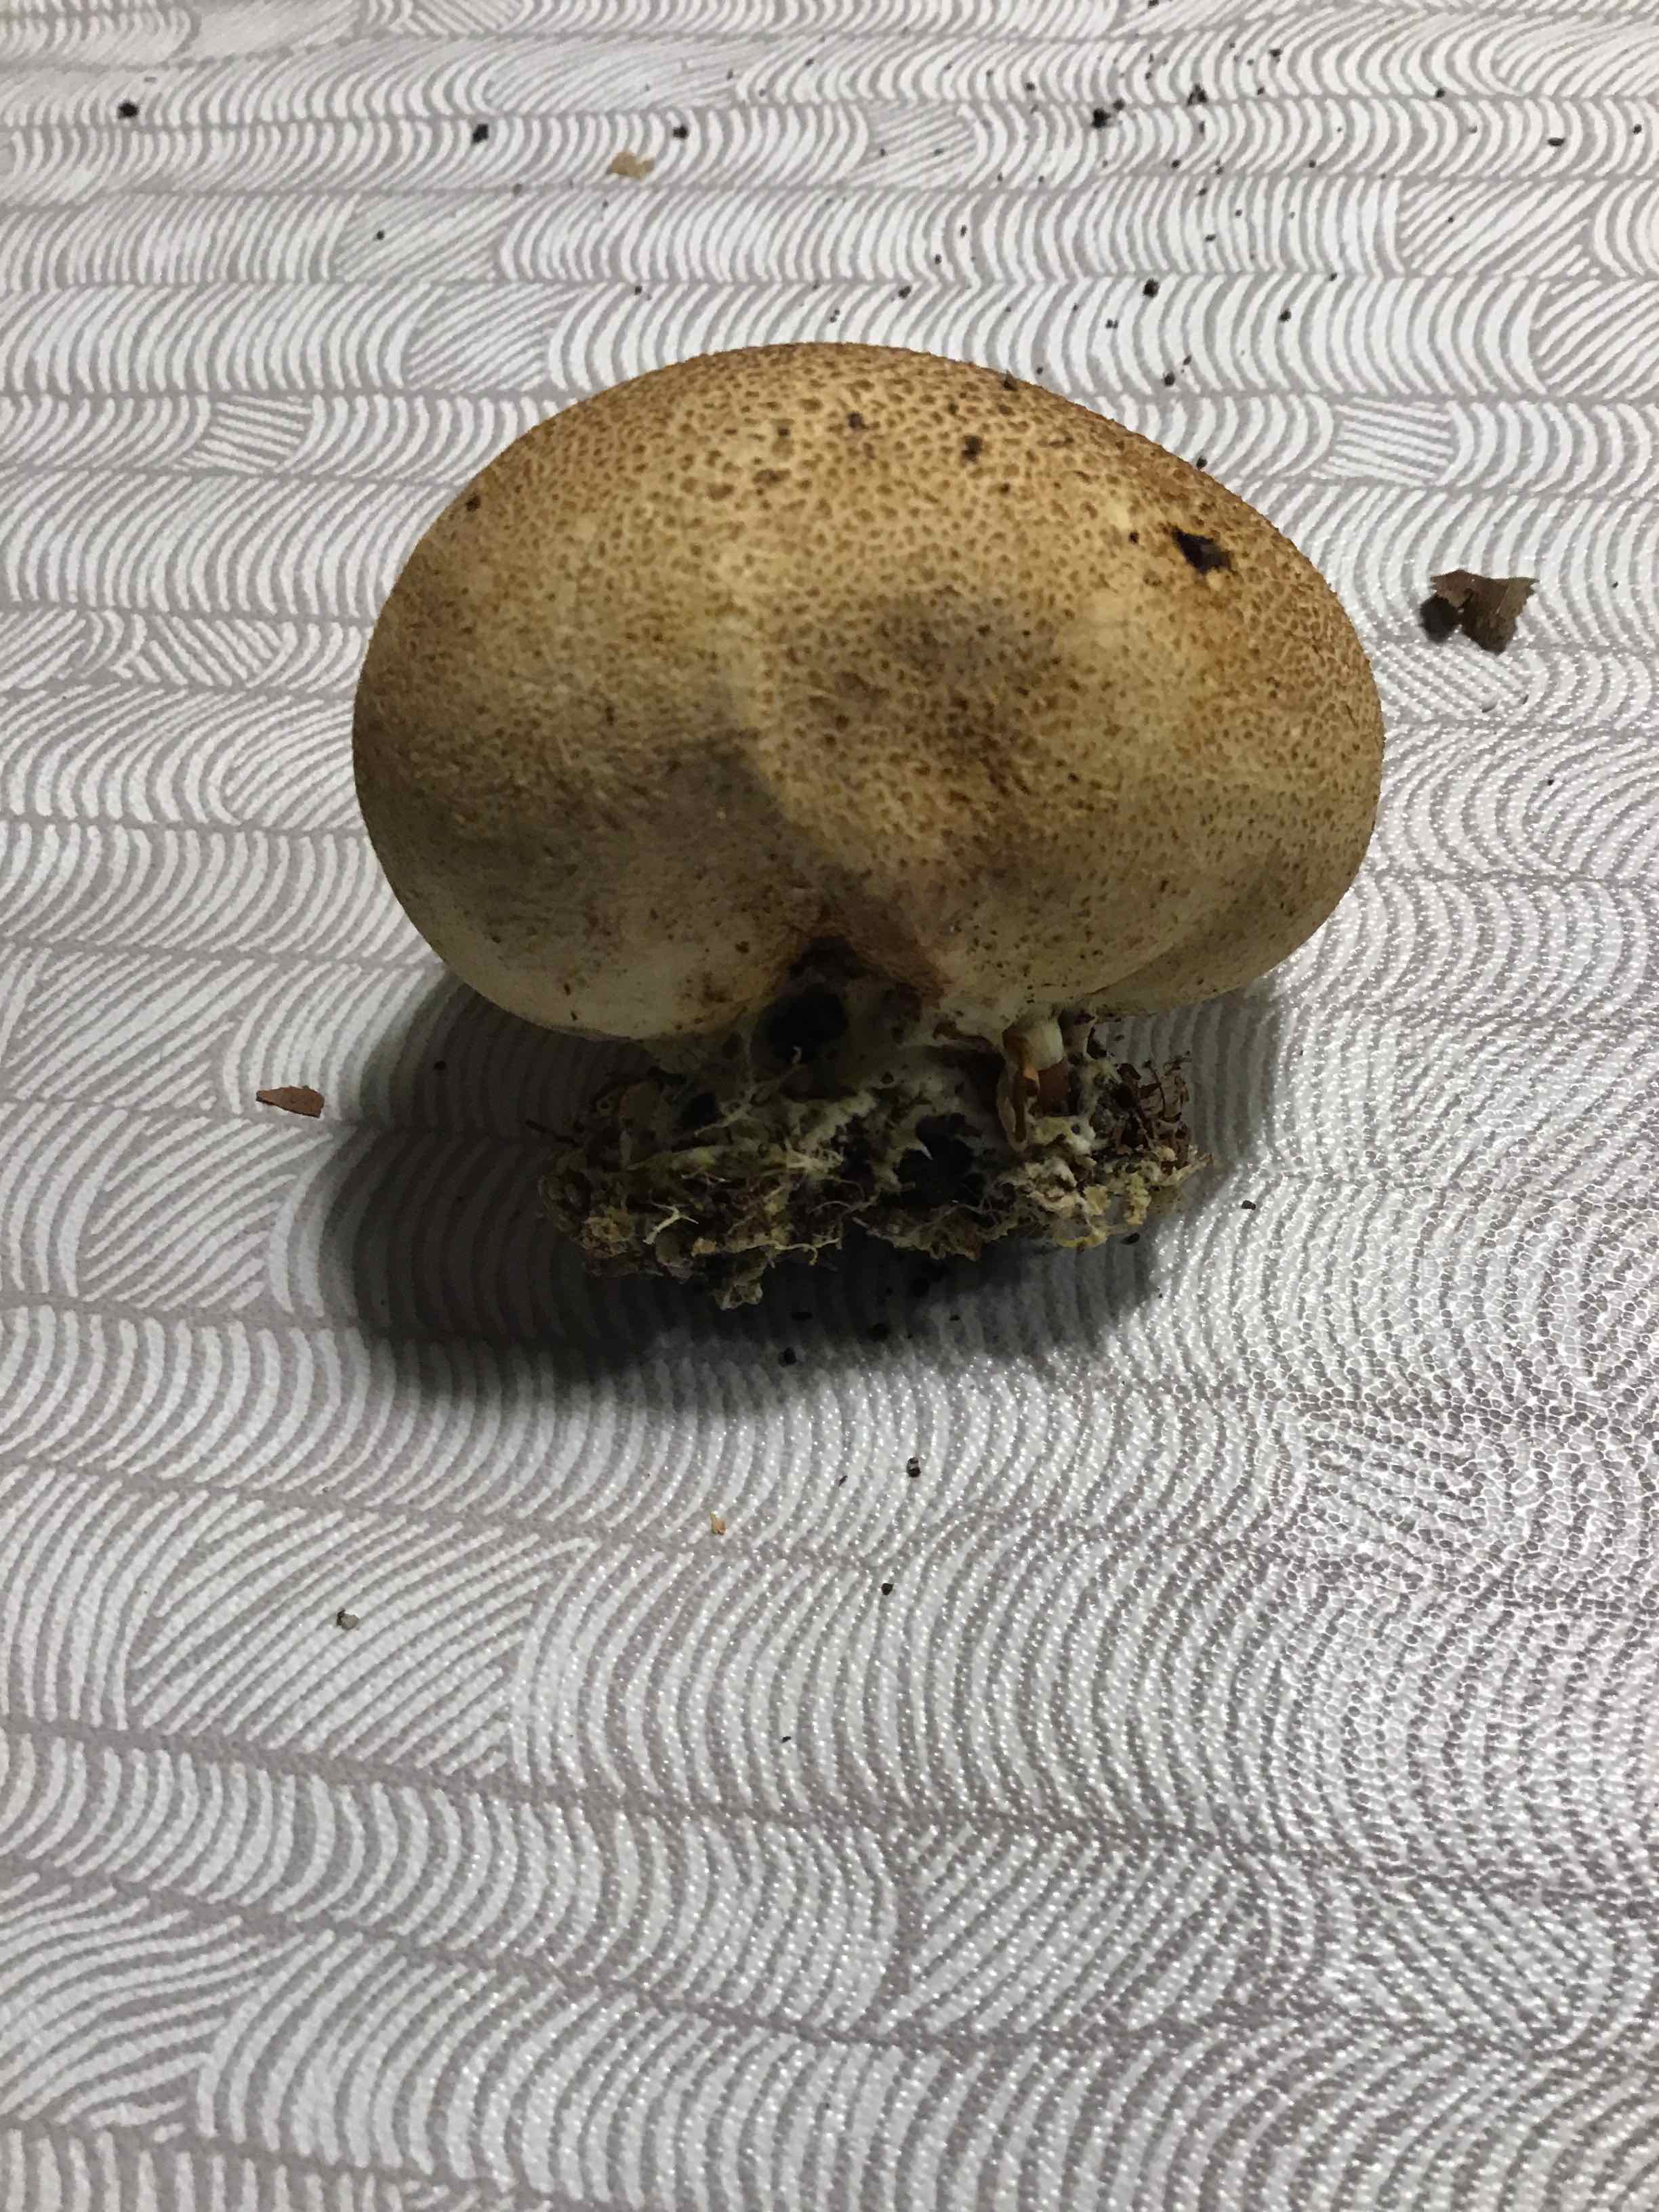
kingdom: Fungi
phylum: Basidiomycota
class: Agaricomycetes
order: Boletales
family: Sclerodermataceae
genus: Scleroderma
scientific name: Scleroderma
